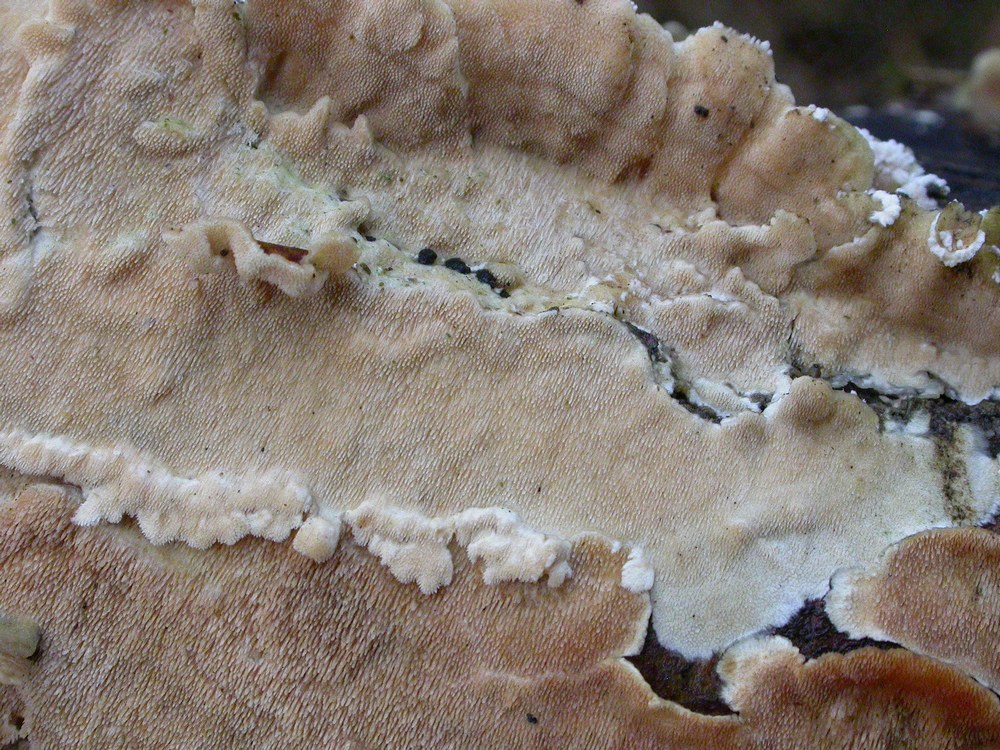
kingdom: Fungi
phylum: Basidiomycota
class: Agaricomycetes
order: Polyporales
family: Steccherinaceae
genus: Steccherinum
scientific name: Steccherinum ochraceum
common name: almindelig skønpig
